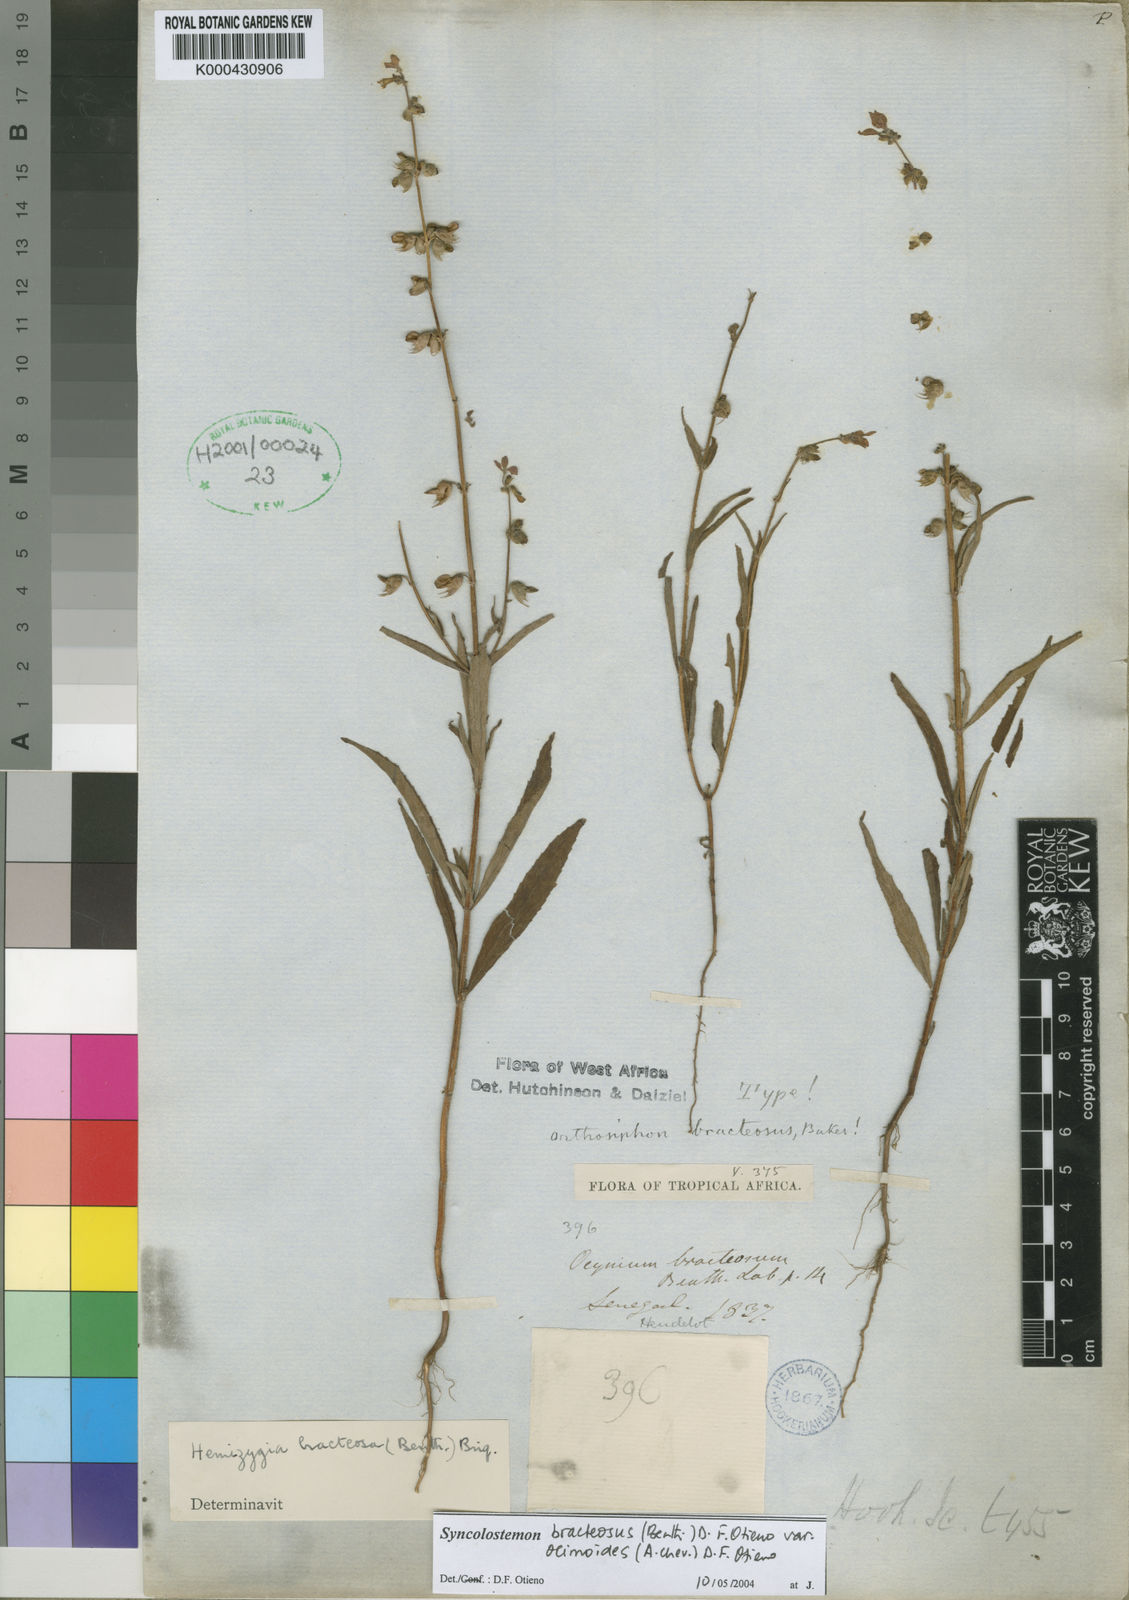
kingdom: Plantae
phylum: Tracheophyta
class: Magnoliopsida
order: Lamiales
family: Lamiaceae
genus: Syncolostemon
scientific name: Syncolostemon bracteosus
